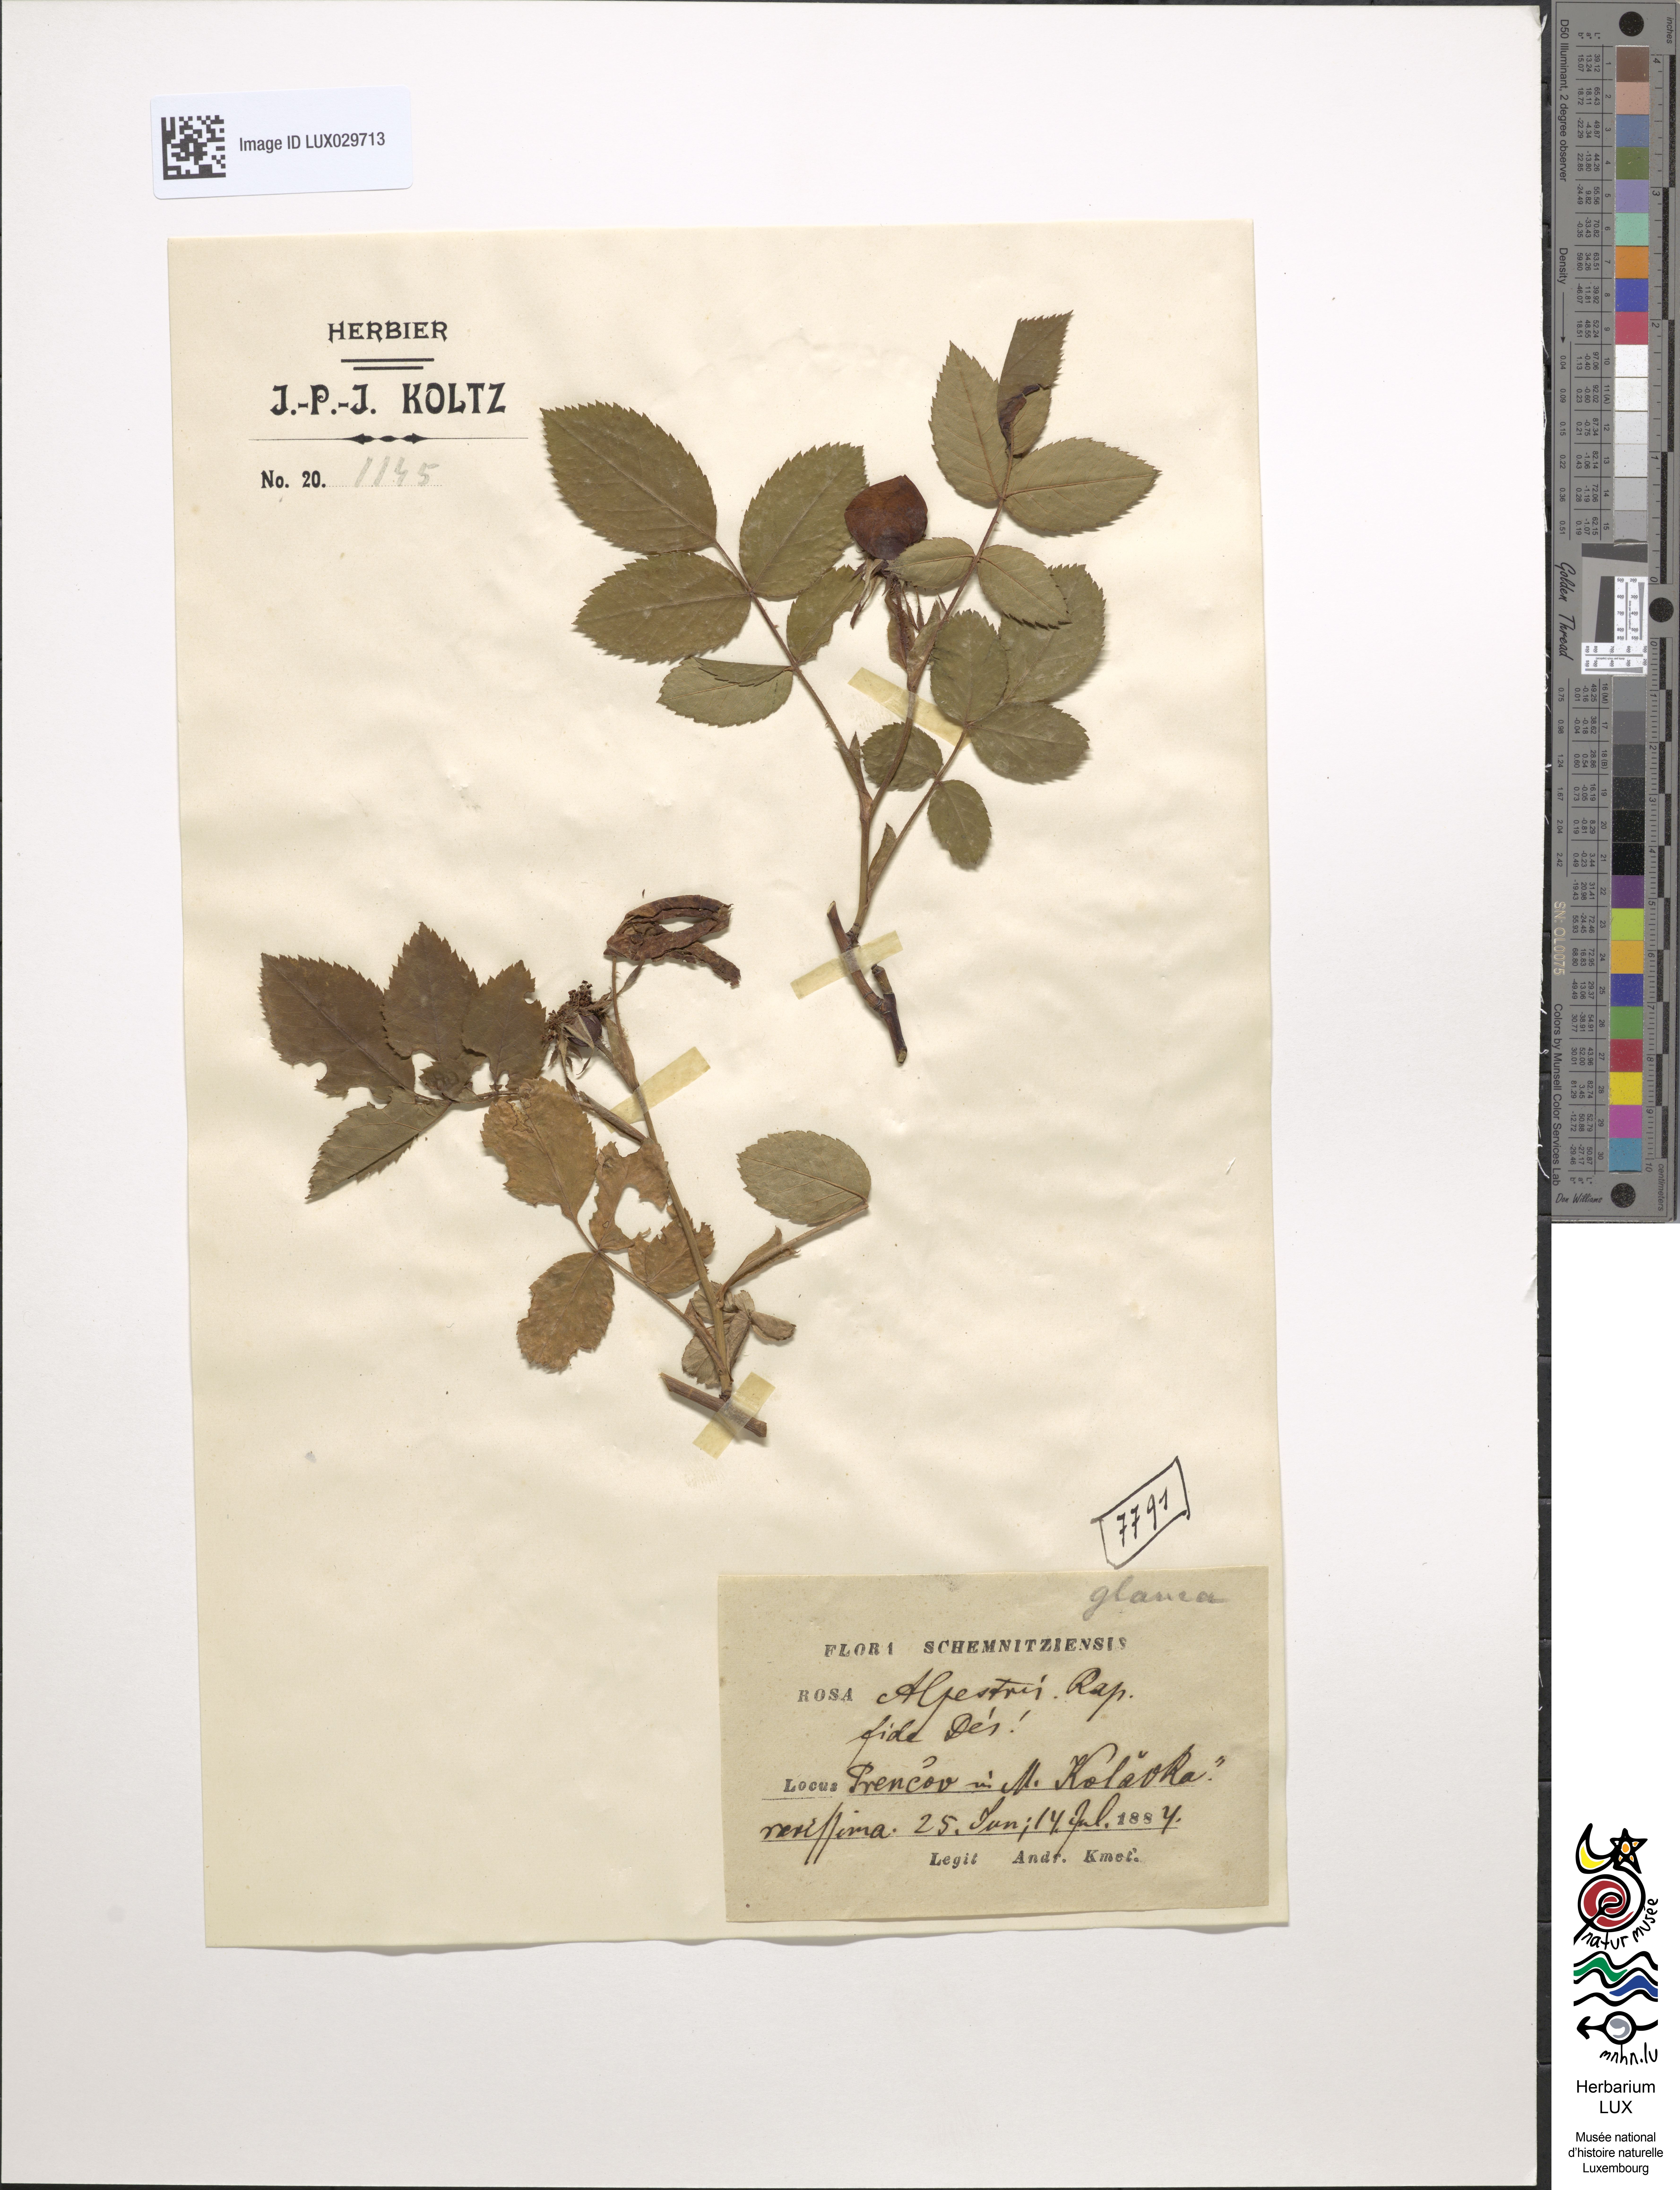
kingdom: Plantae
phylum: Tracheophyta
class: Magnoliopsida
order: Rosales
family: Rosaceae
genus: Rosa
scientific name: Rosa alpestris
